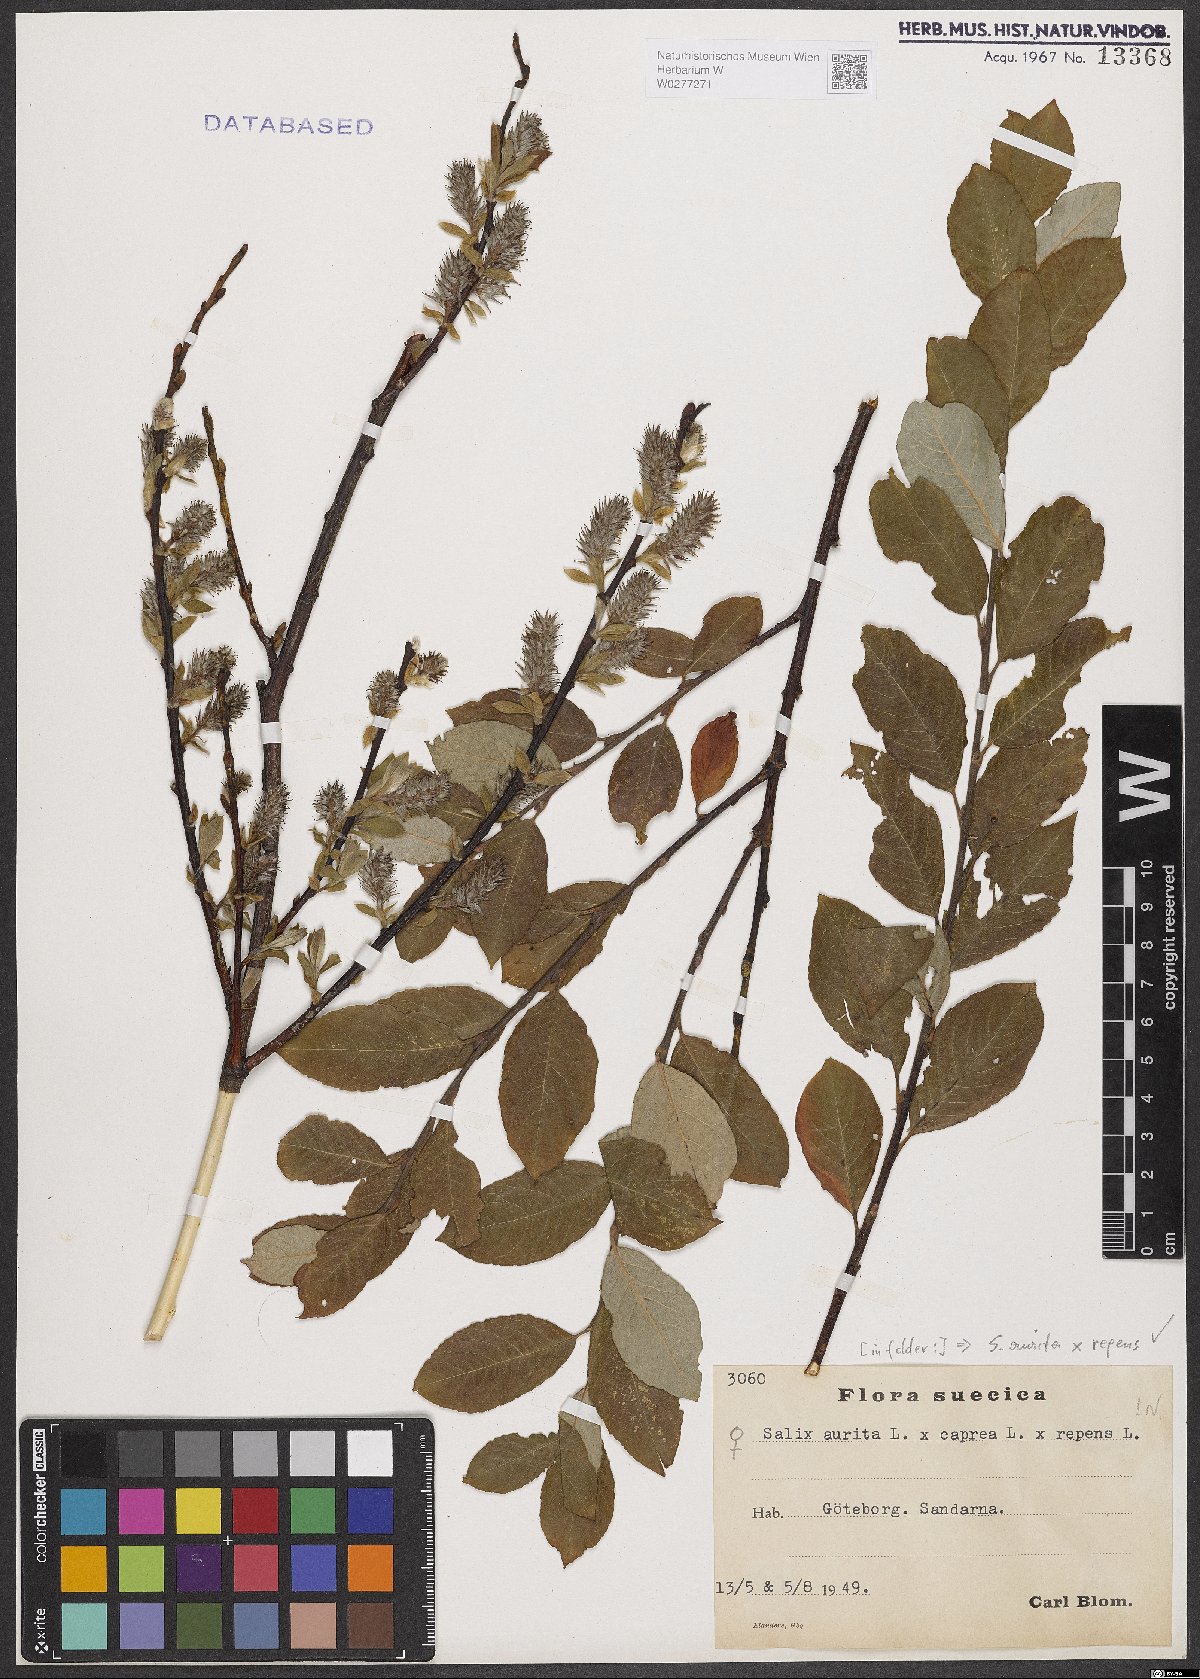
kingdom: Plantae
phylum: Tracheophyta
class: Magnoliopsida
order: Malpighiales
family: Salicaceae
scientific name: Salicaceae
